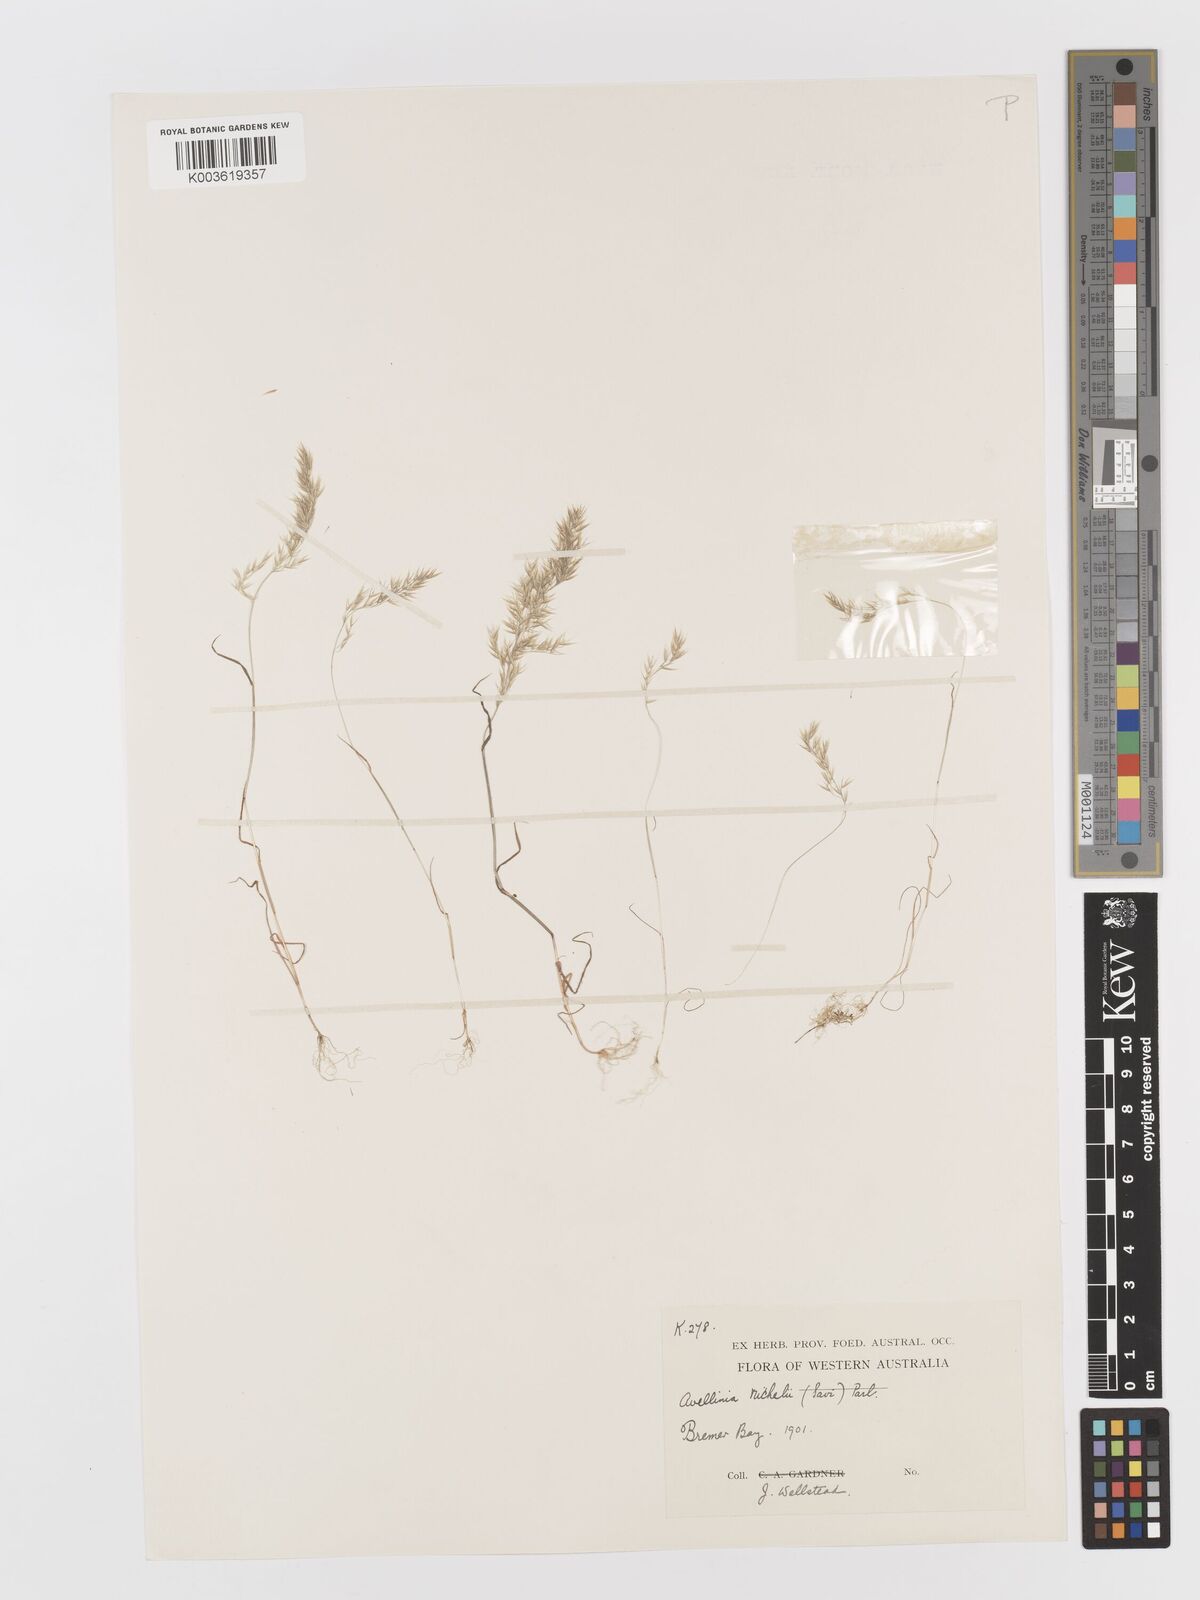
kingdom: Plantae
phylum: Tracheophyta
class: Liliopsida
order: Poales
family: Poaceae
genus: Rostraria
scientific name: Rostraria
